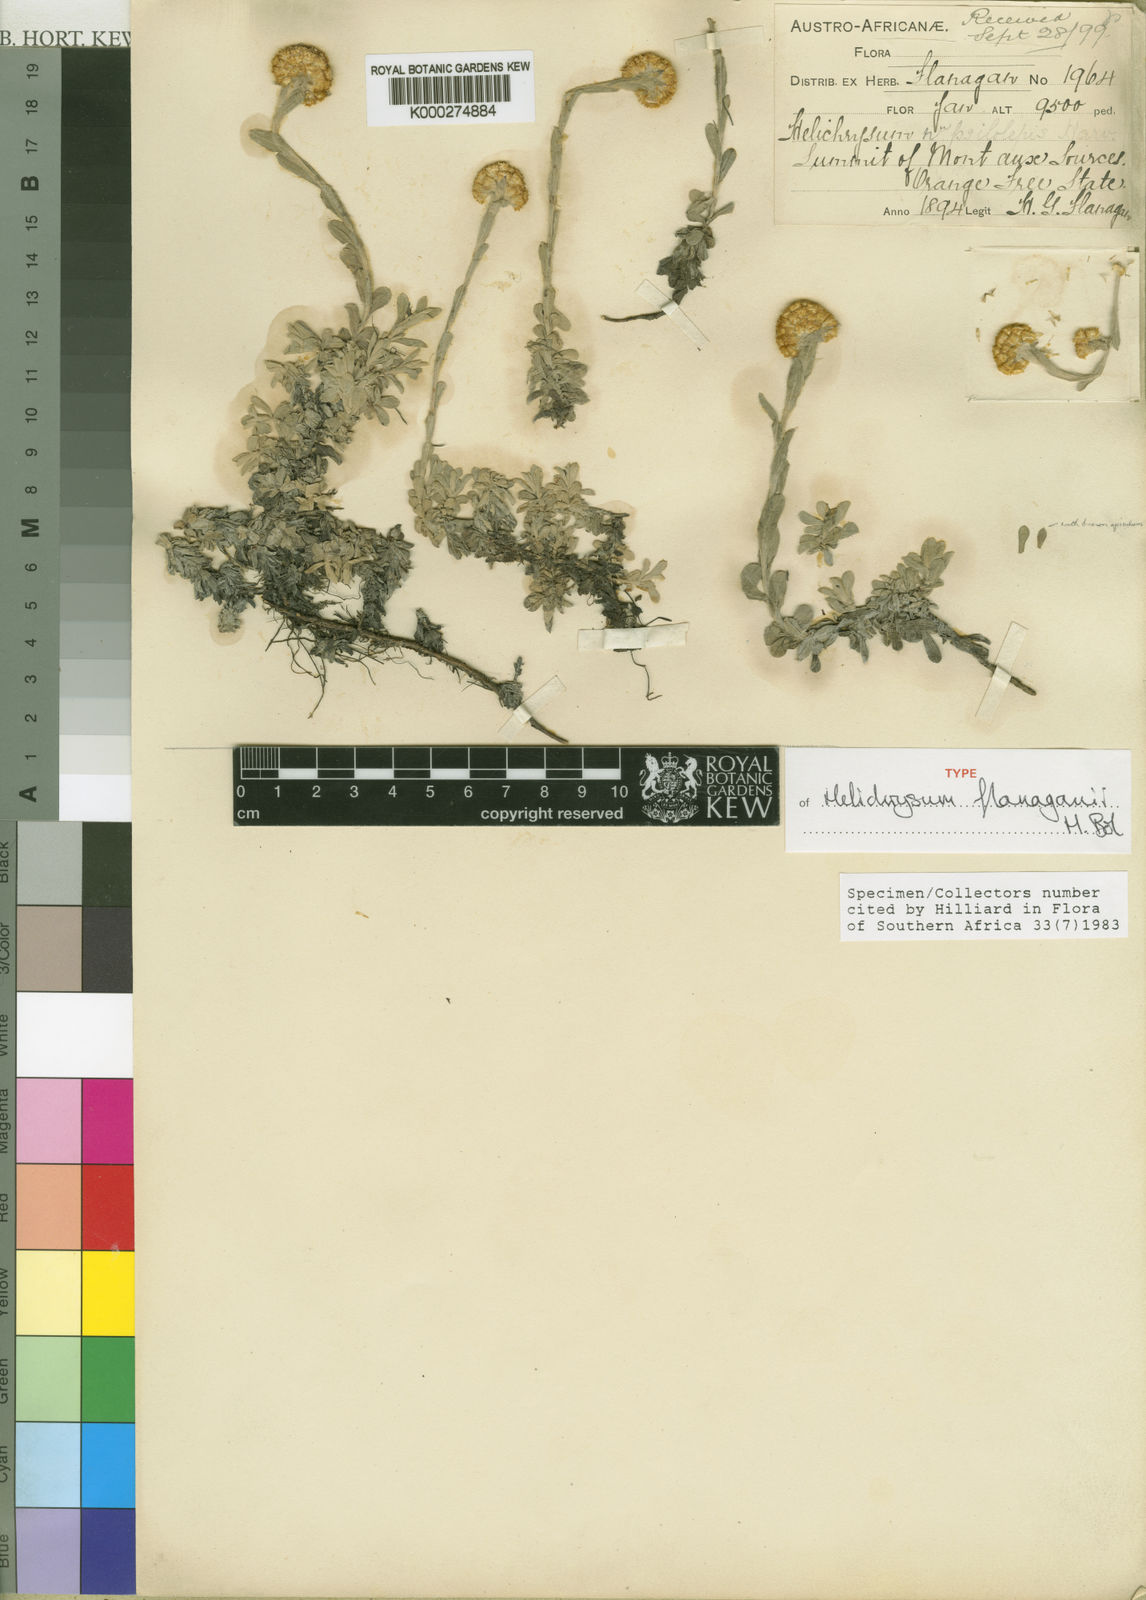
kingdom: Plantae
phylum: Tracheophyta
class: Magnoliopsida
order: Asterales
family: Asteraceae
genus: Helichrysum
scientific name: Helichrysum flanaganii
